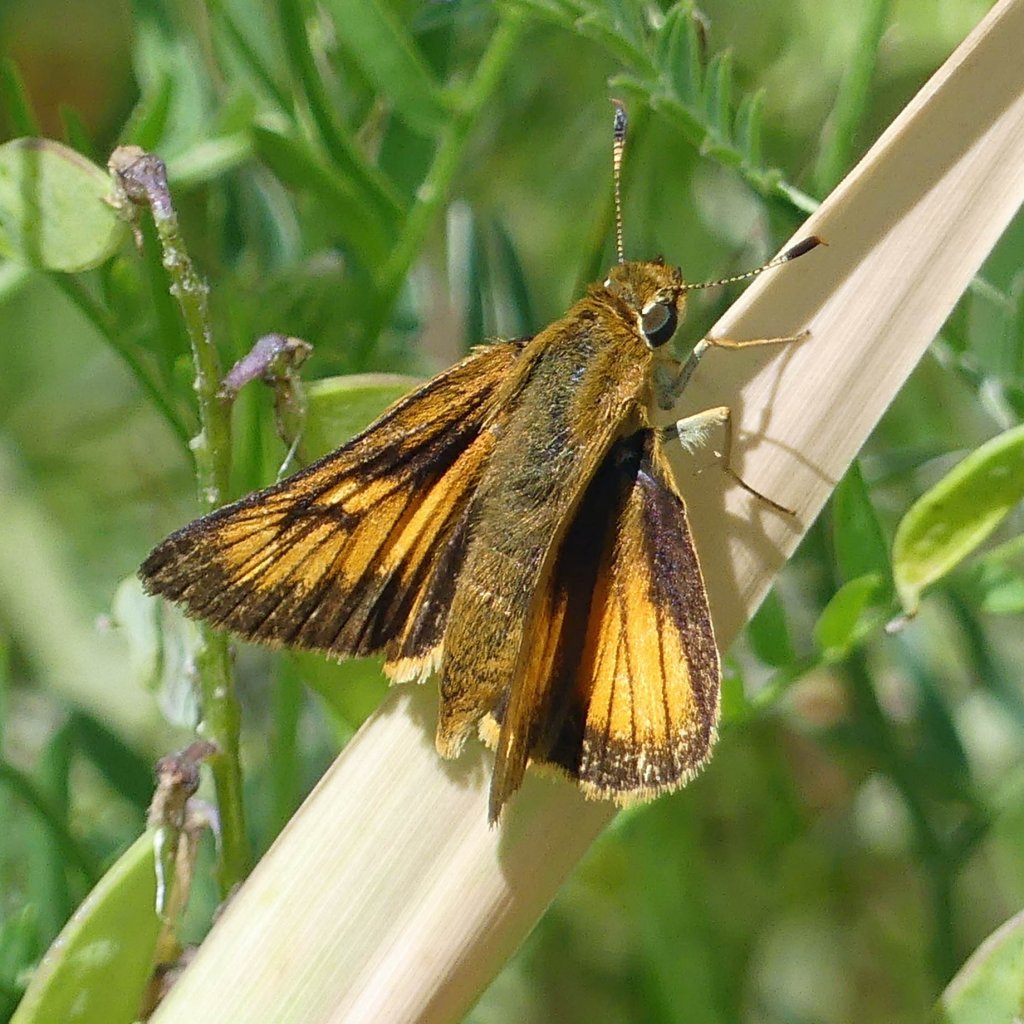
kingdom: Animalia
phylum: Arthropoda
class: Insecta
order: Lepidoptera
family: Hesperiidae
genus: Atrytone
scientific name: Atrytone delaware
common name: Delaware Skipper
